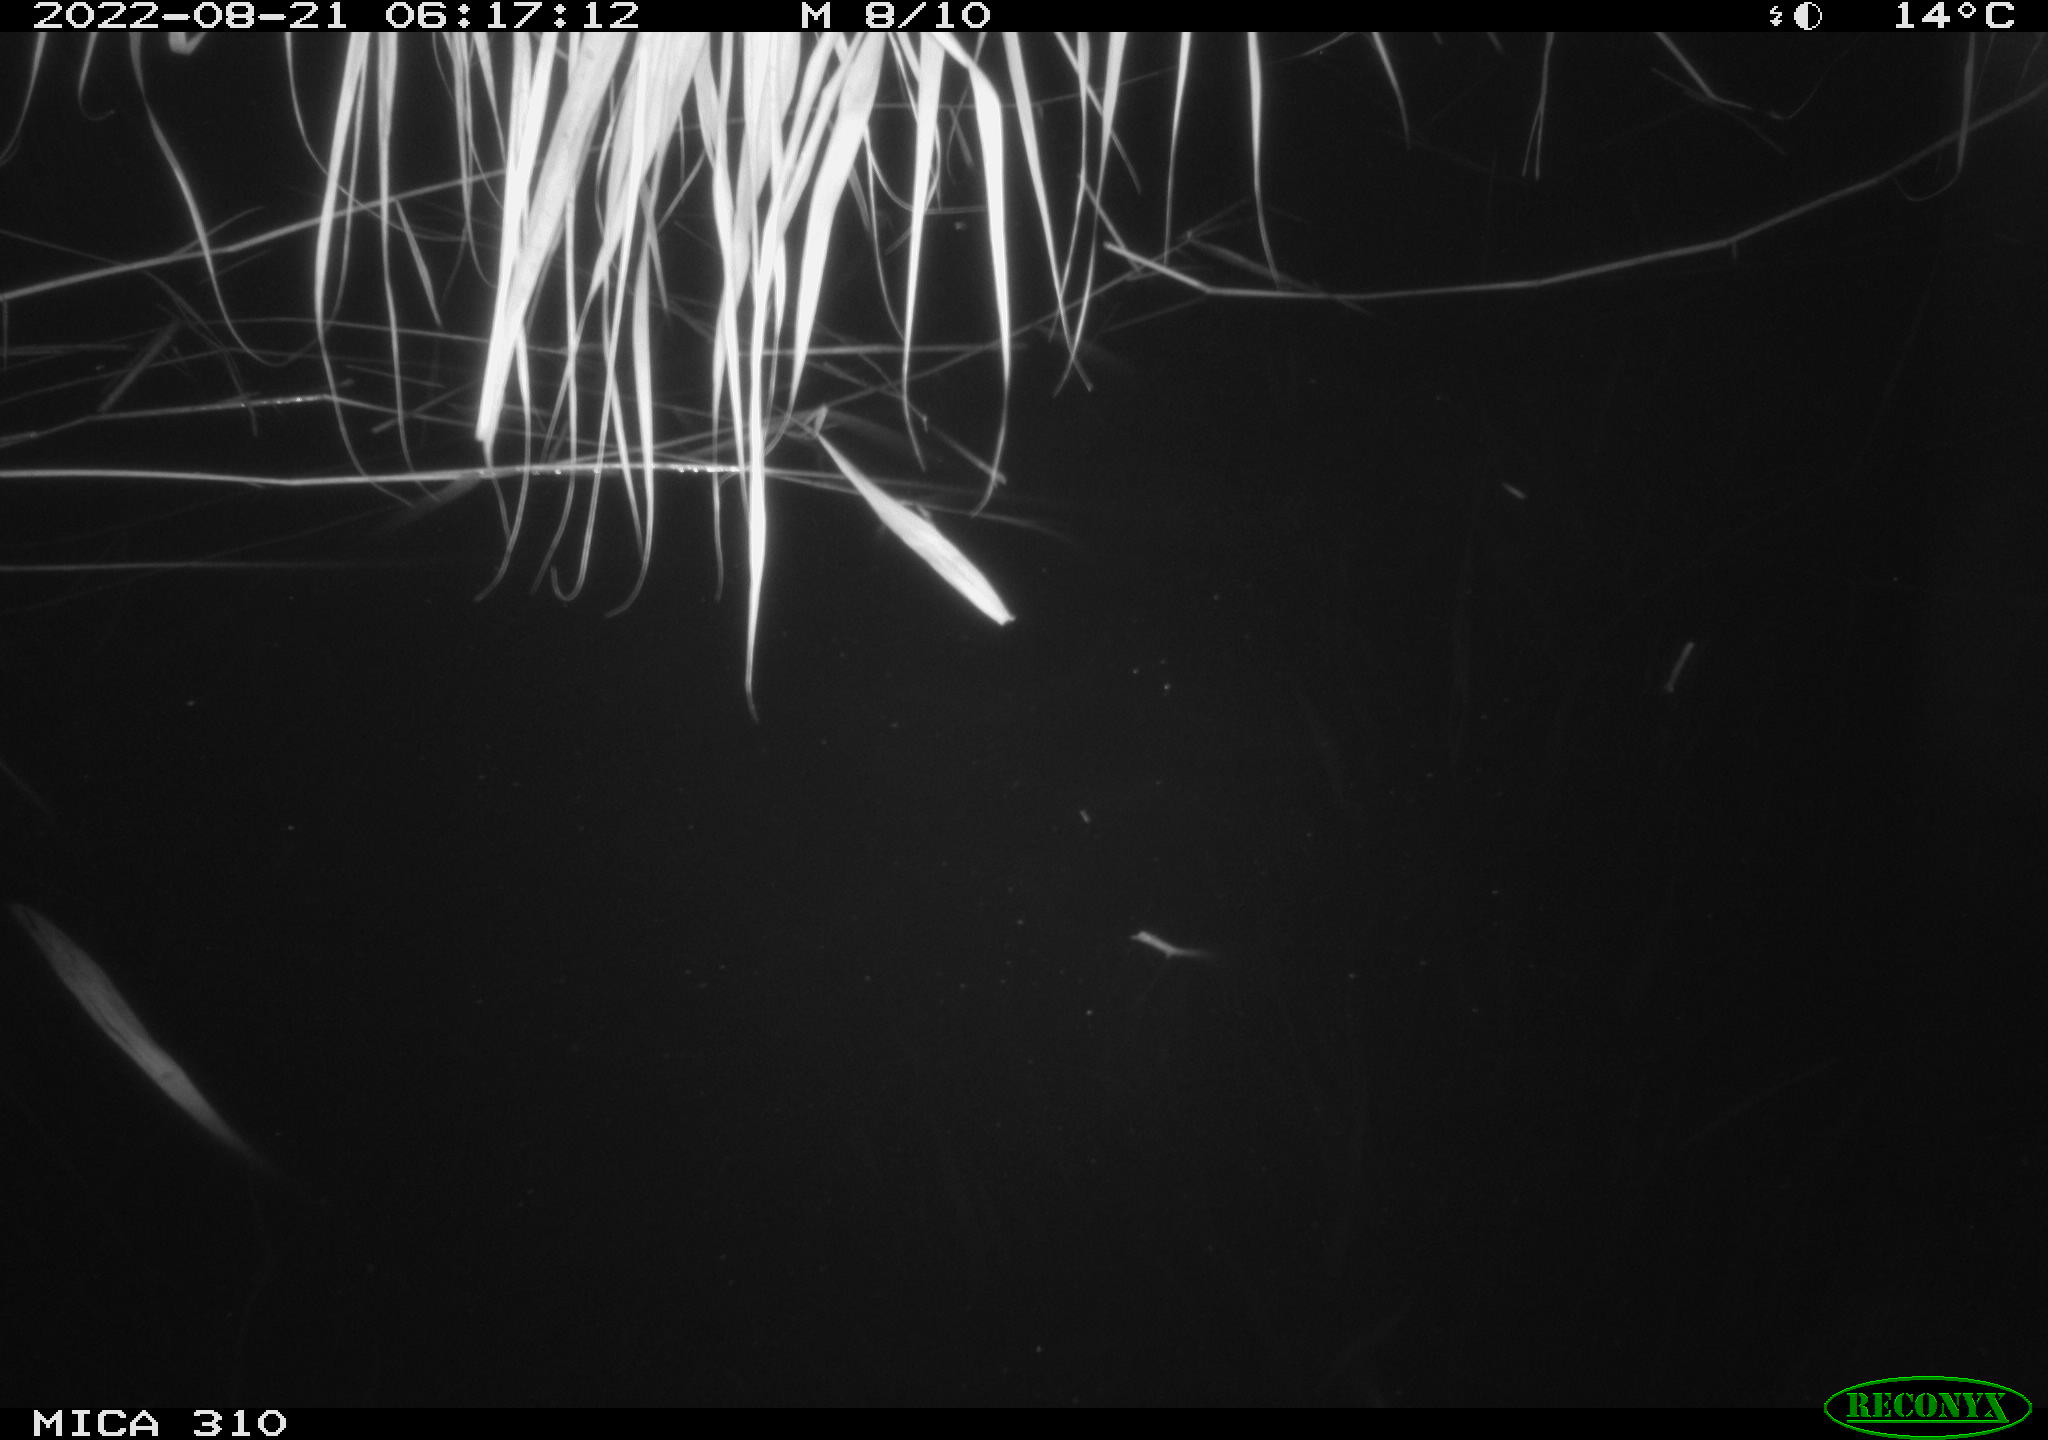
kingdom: Animalia
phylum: Chordata
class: Aves
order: Gruiformes
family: Rallidae
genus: Gallinula
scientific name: Gallinula chloropus
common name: Common moorhen
